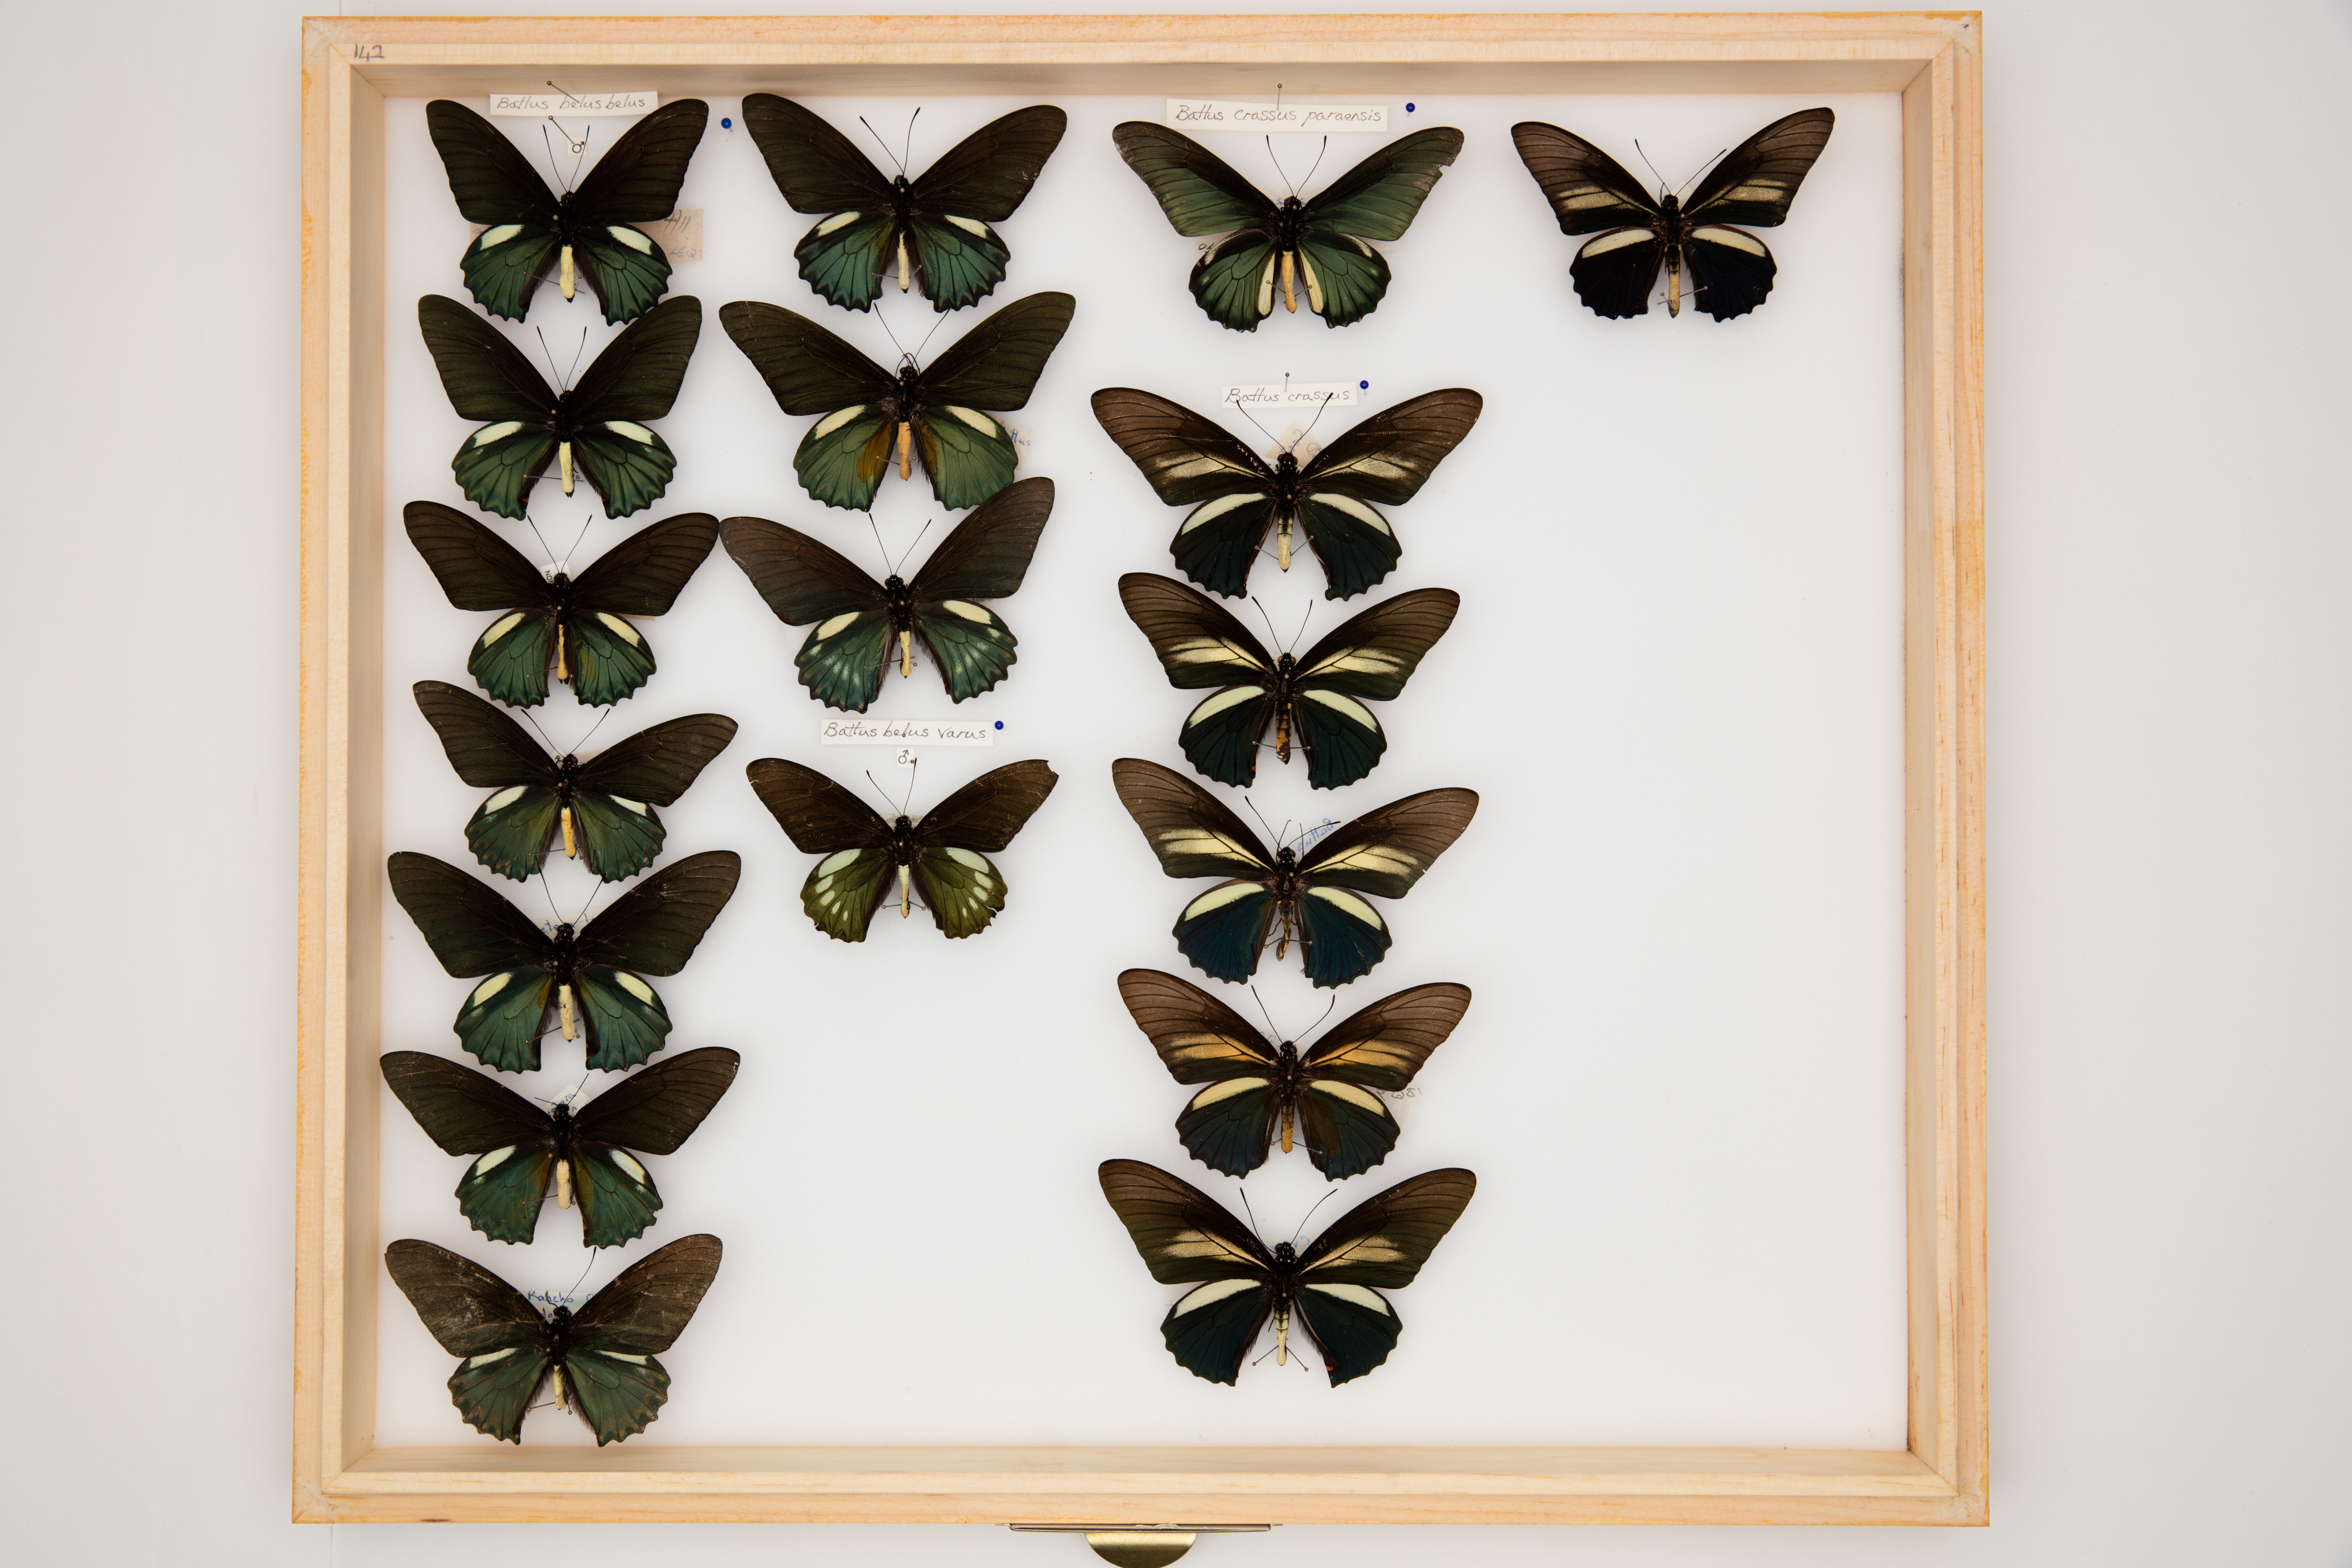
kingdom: Animalia
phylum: Arthropoda
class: Insecta
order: Lepidoptera
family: Papilionidae
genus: Battus
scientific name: Battus belus
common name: Belus swallowtail
